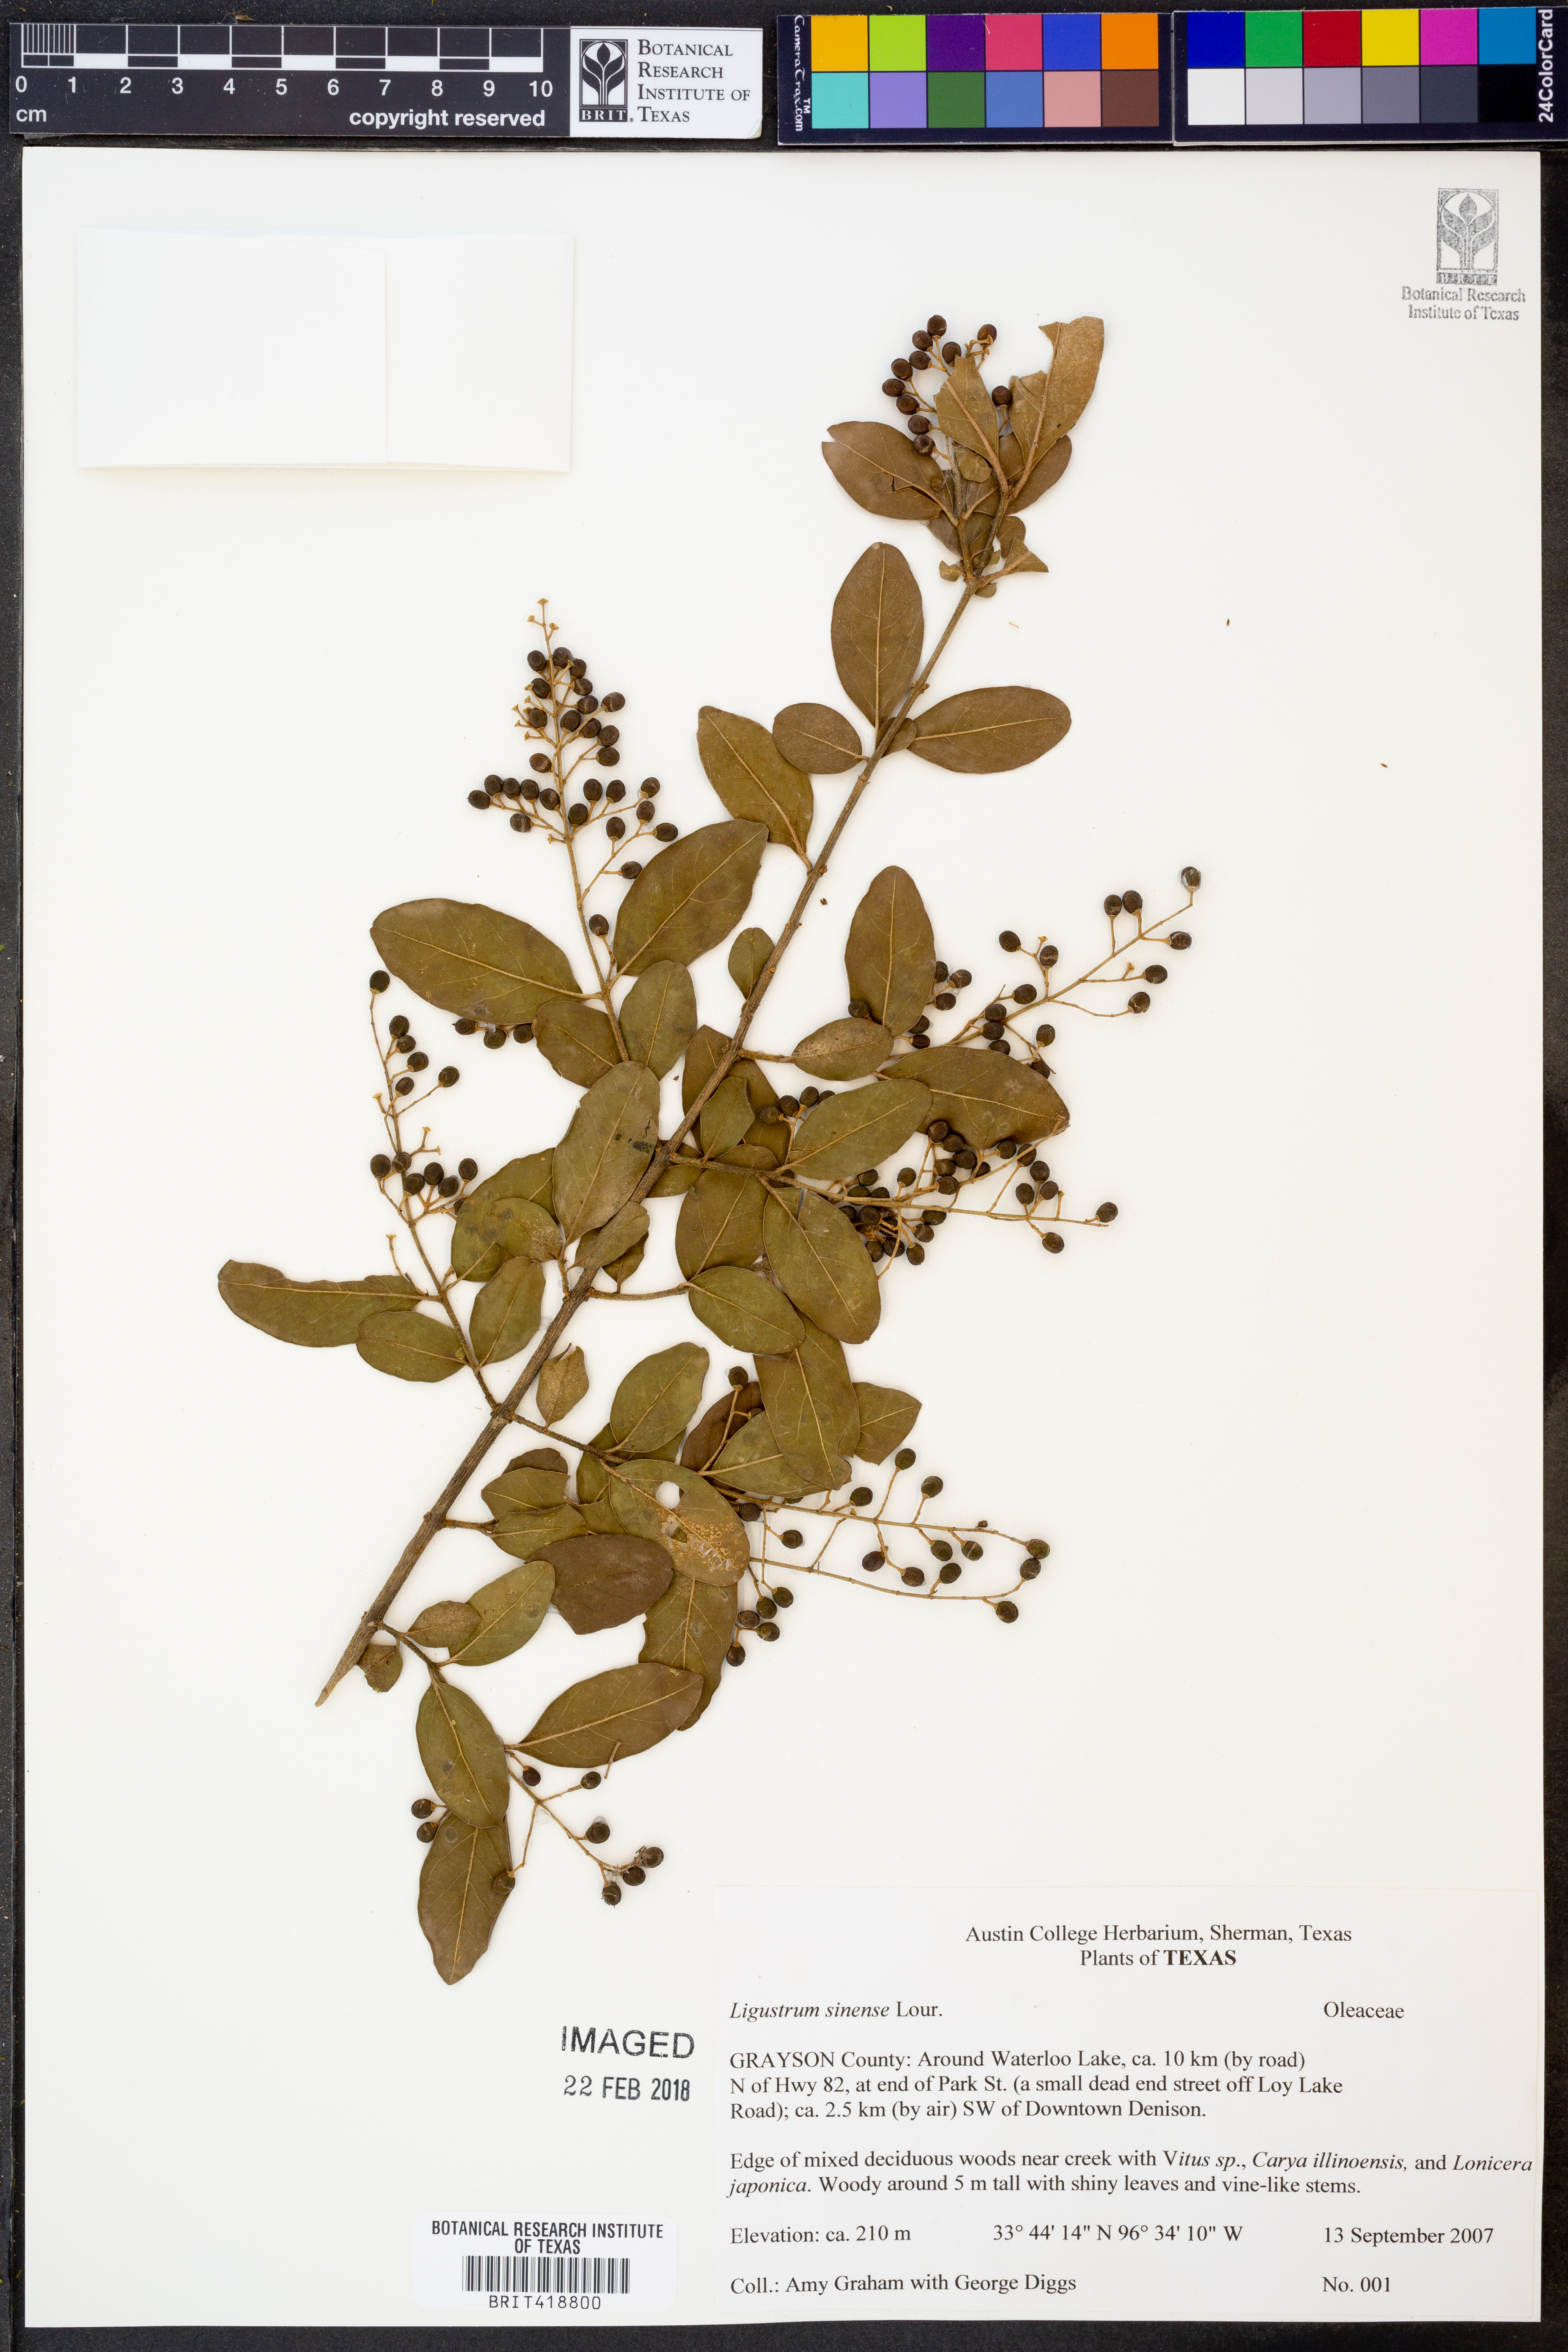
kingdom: Plantae
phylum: Tracheophyta
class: Magnoliopsida
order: Lamiales
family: Oleaceae
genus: Ligustrum
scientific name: Ligustrum sinense
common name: Chinese privet
